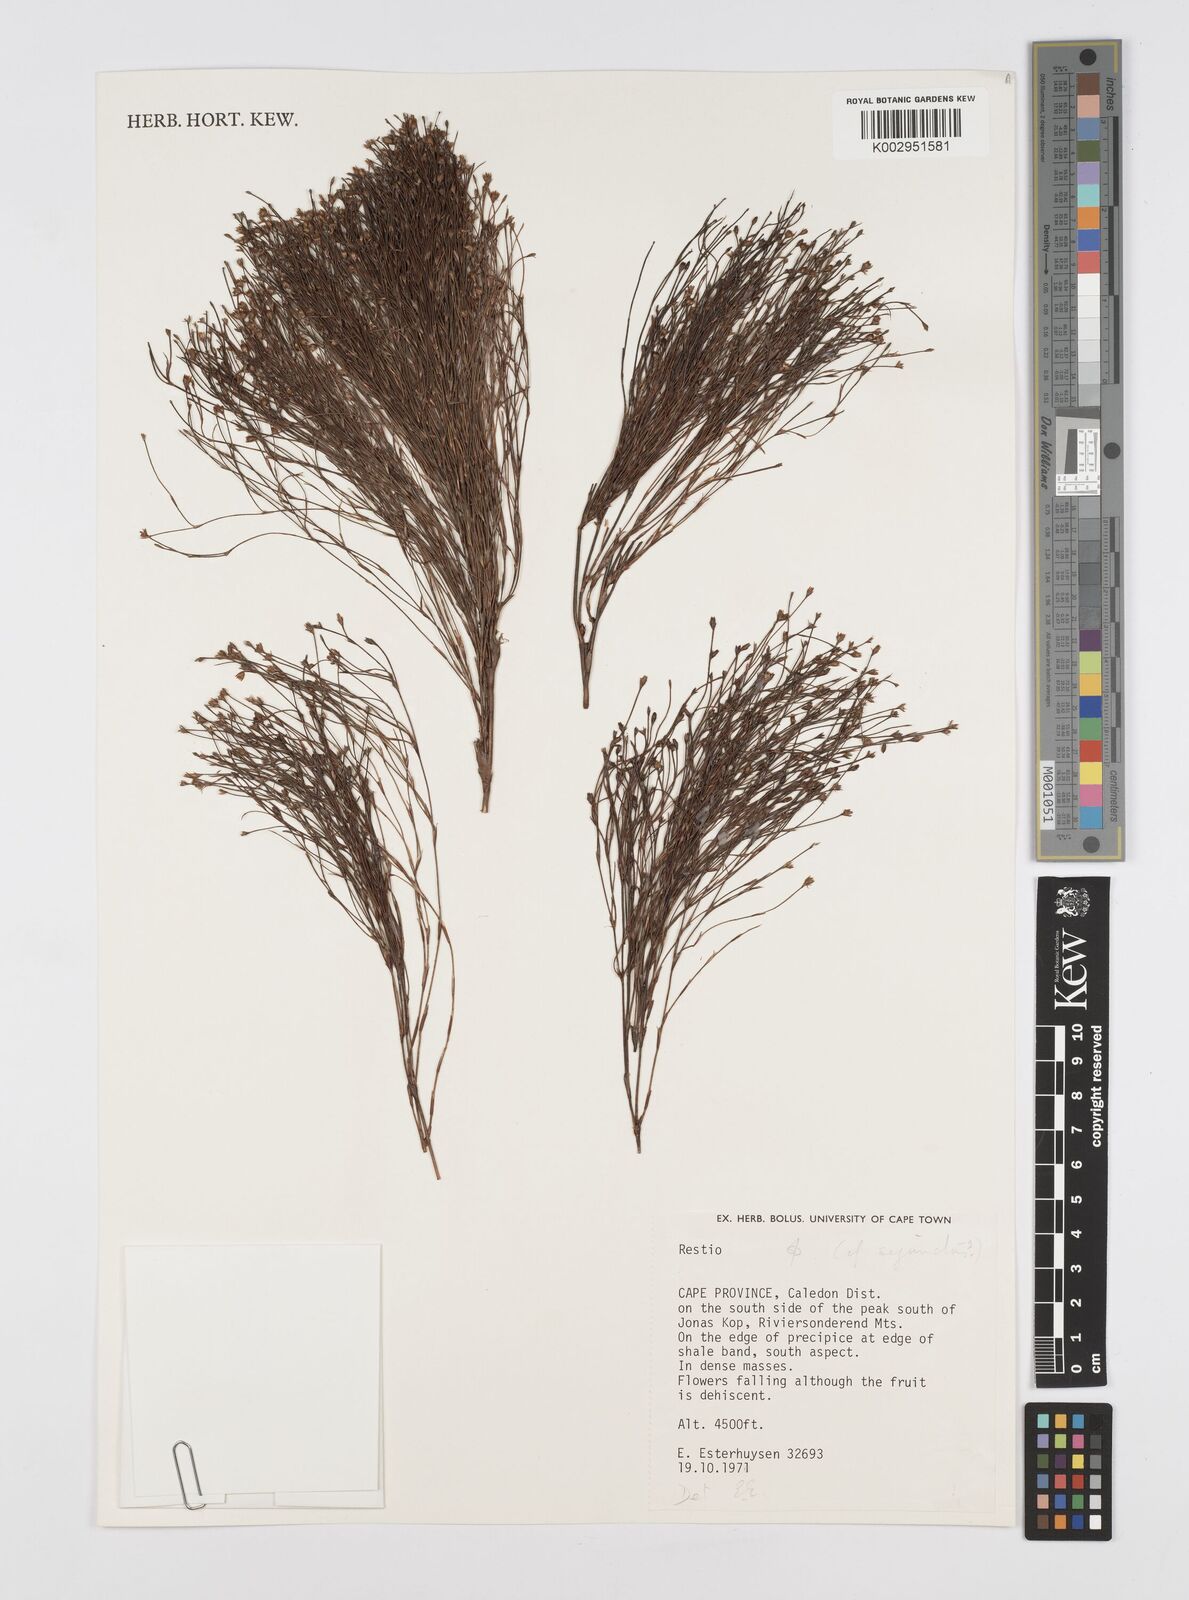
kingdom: Plantae
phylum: Tracheophyta
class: Liliopsida
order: Poales
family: Restionaceae
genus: Restio
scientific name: Restio sejunctus
